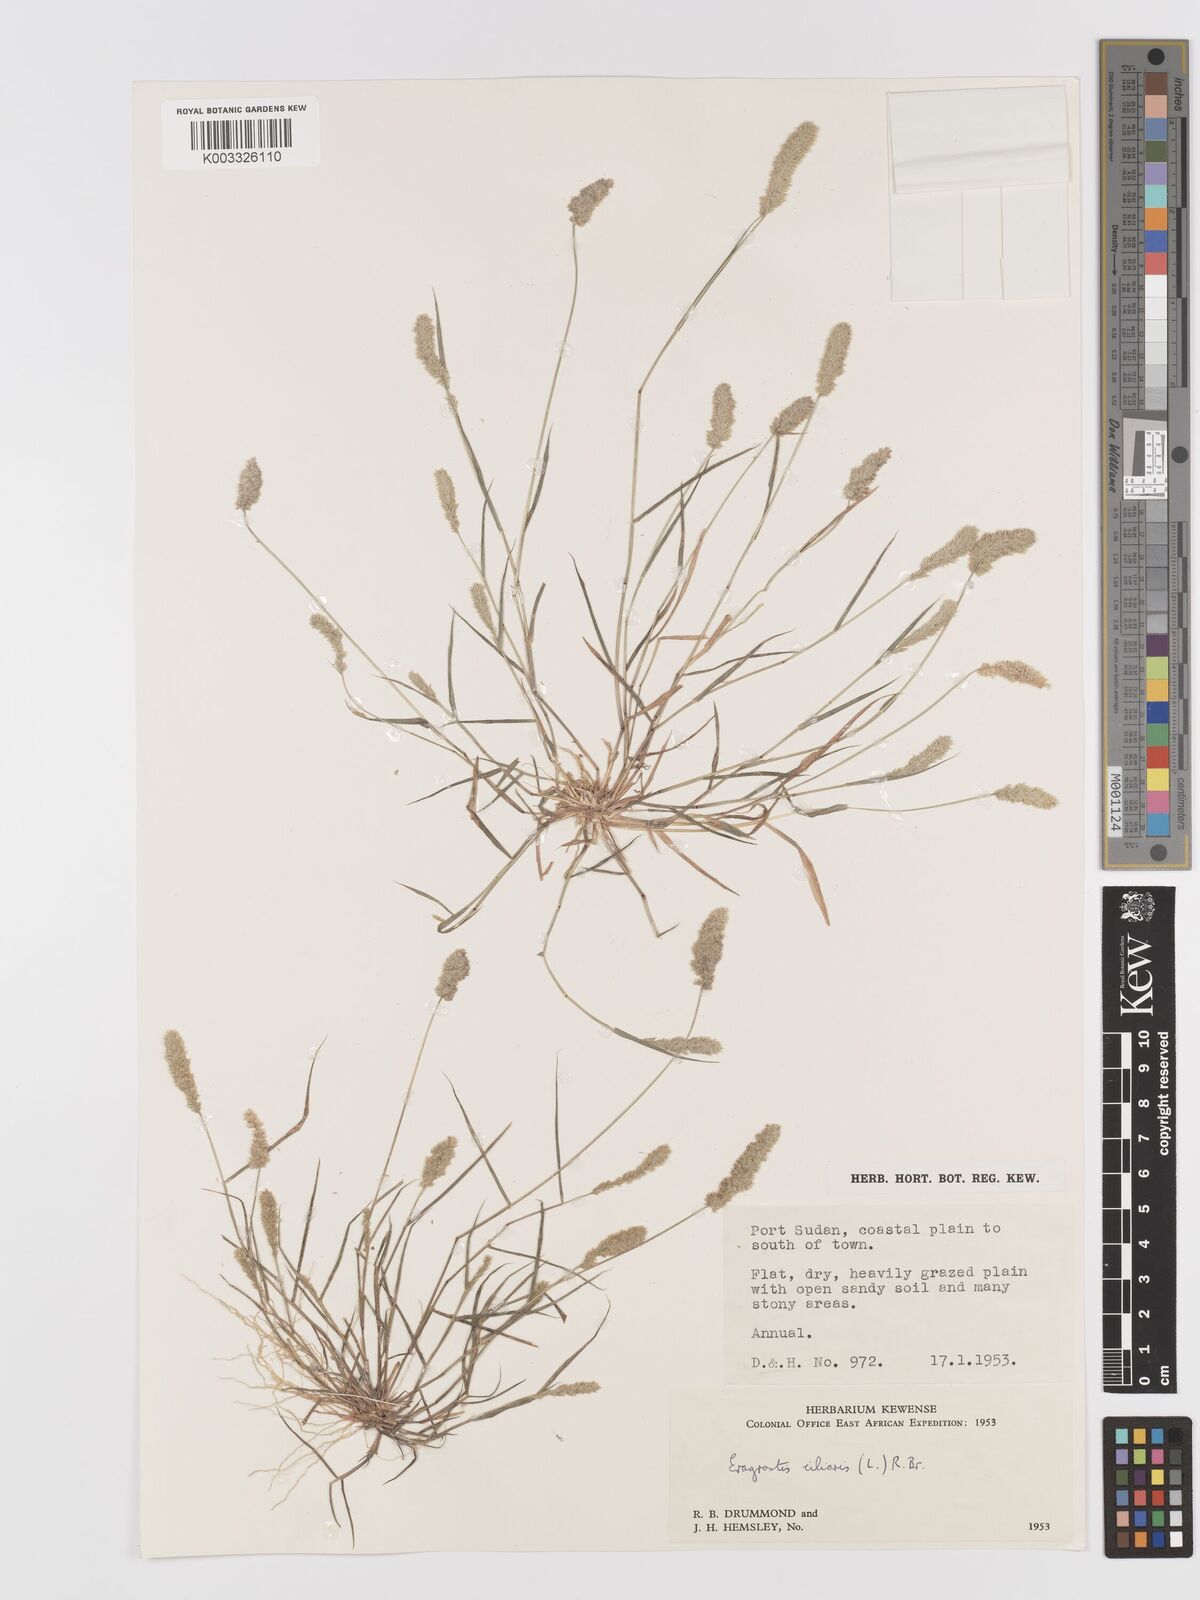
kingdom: Plantae
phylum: Tracheophyta
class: Liliopsida
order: Poales
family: Poaceae
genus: Eragrostis
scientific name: Eragrostis ciliaris
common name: Gophertail lovegrass
